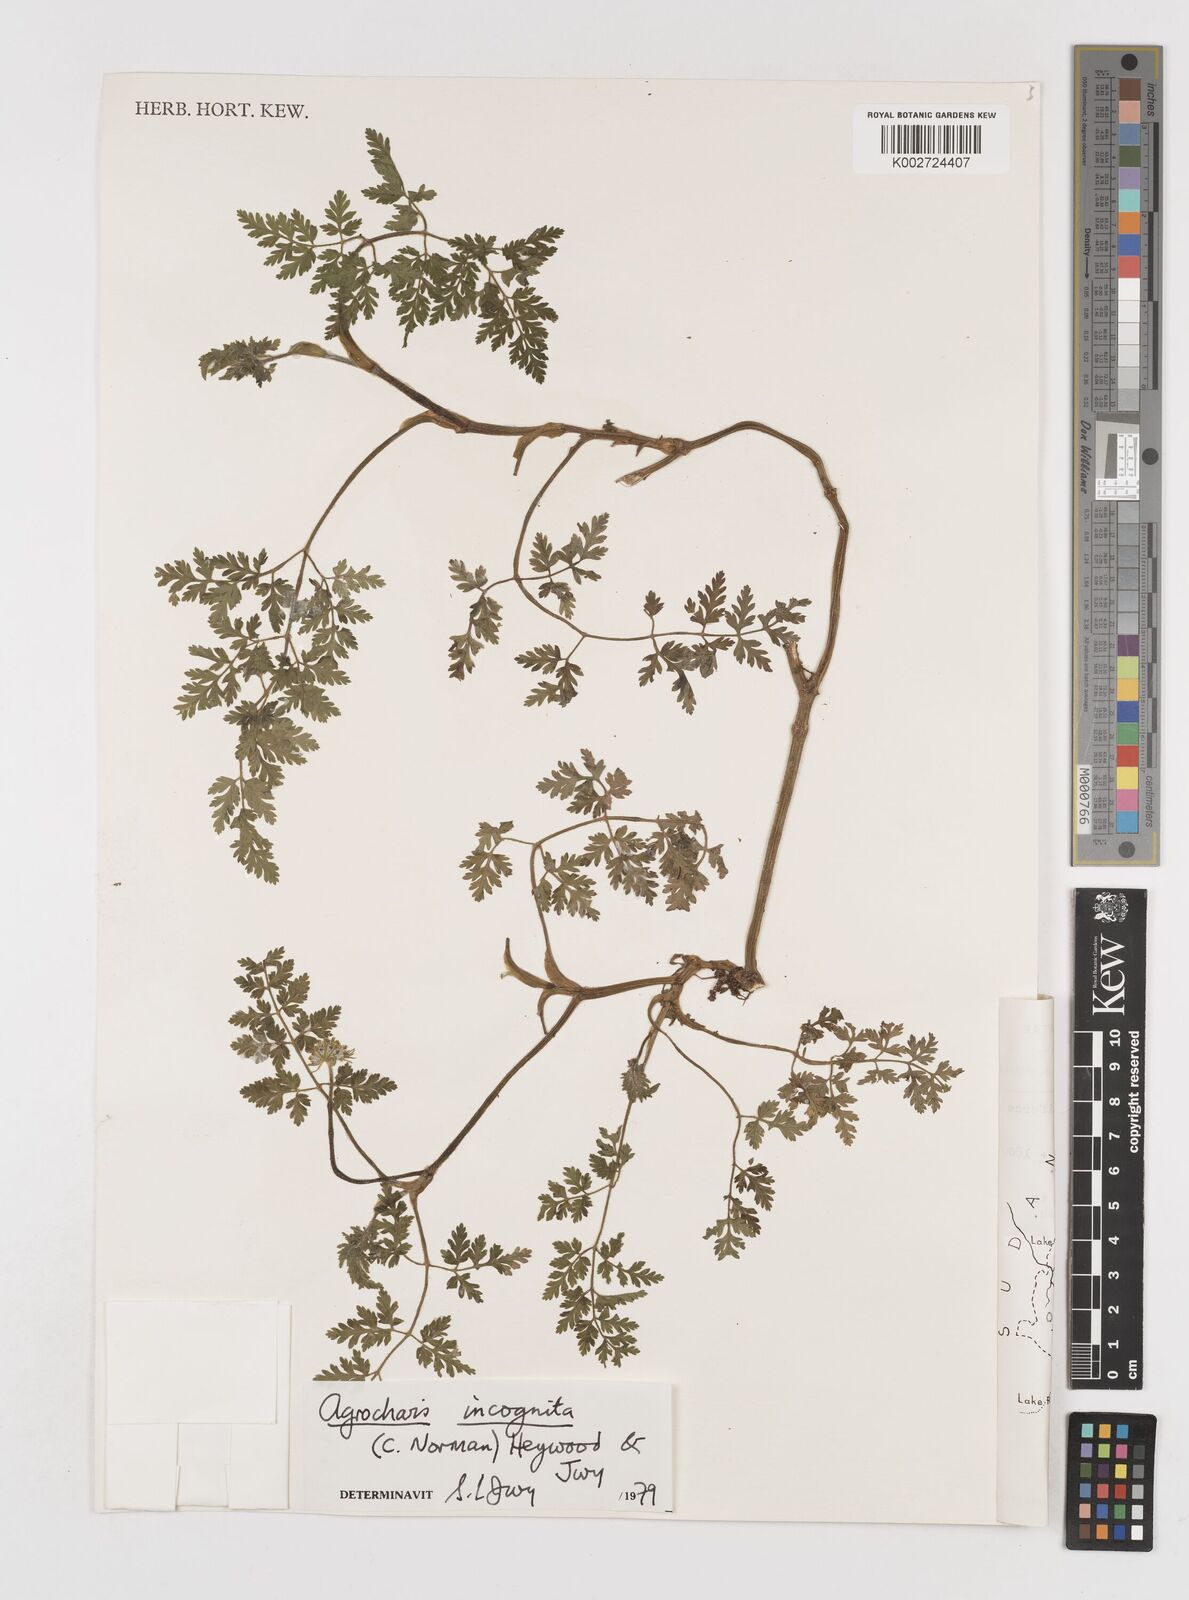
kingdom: Plantae
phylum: Tracheophyta
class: Magnoliopsida
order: Apiales
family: Apiaceae
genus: Daucus
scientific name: Daucus incognitus
